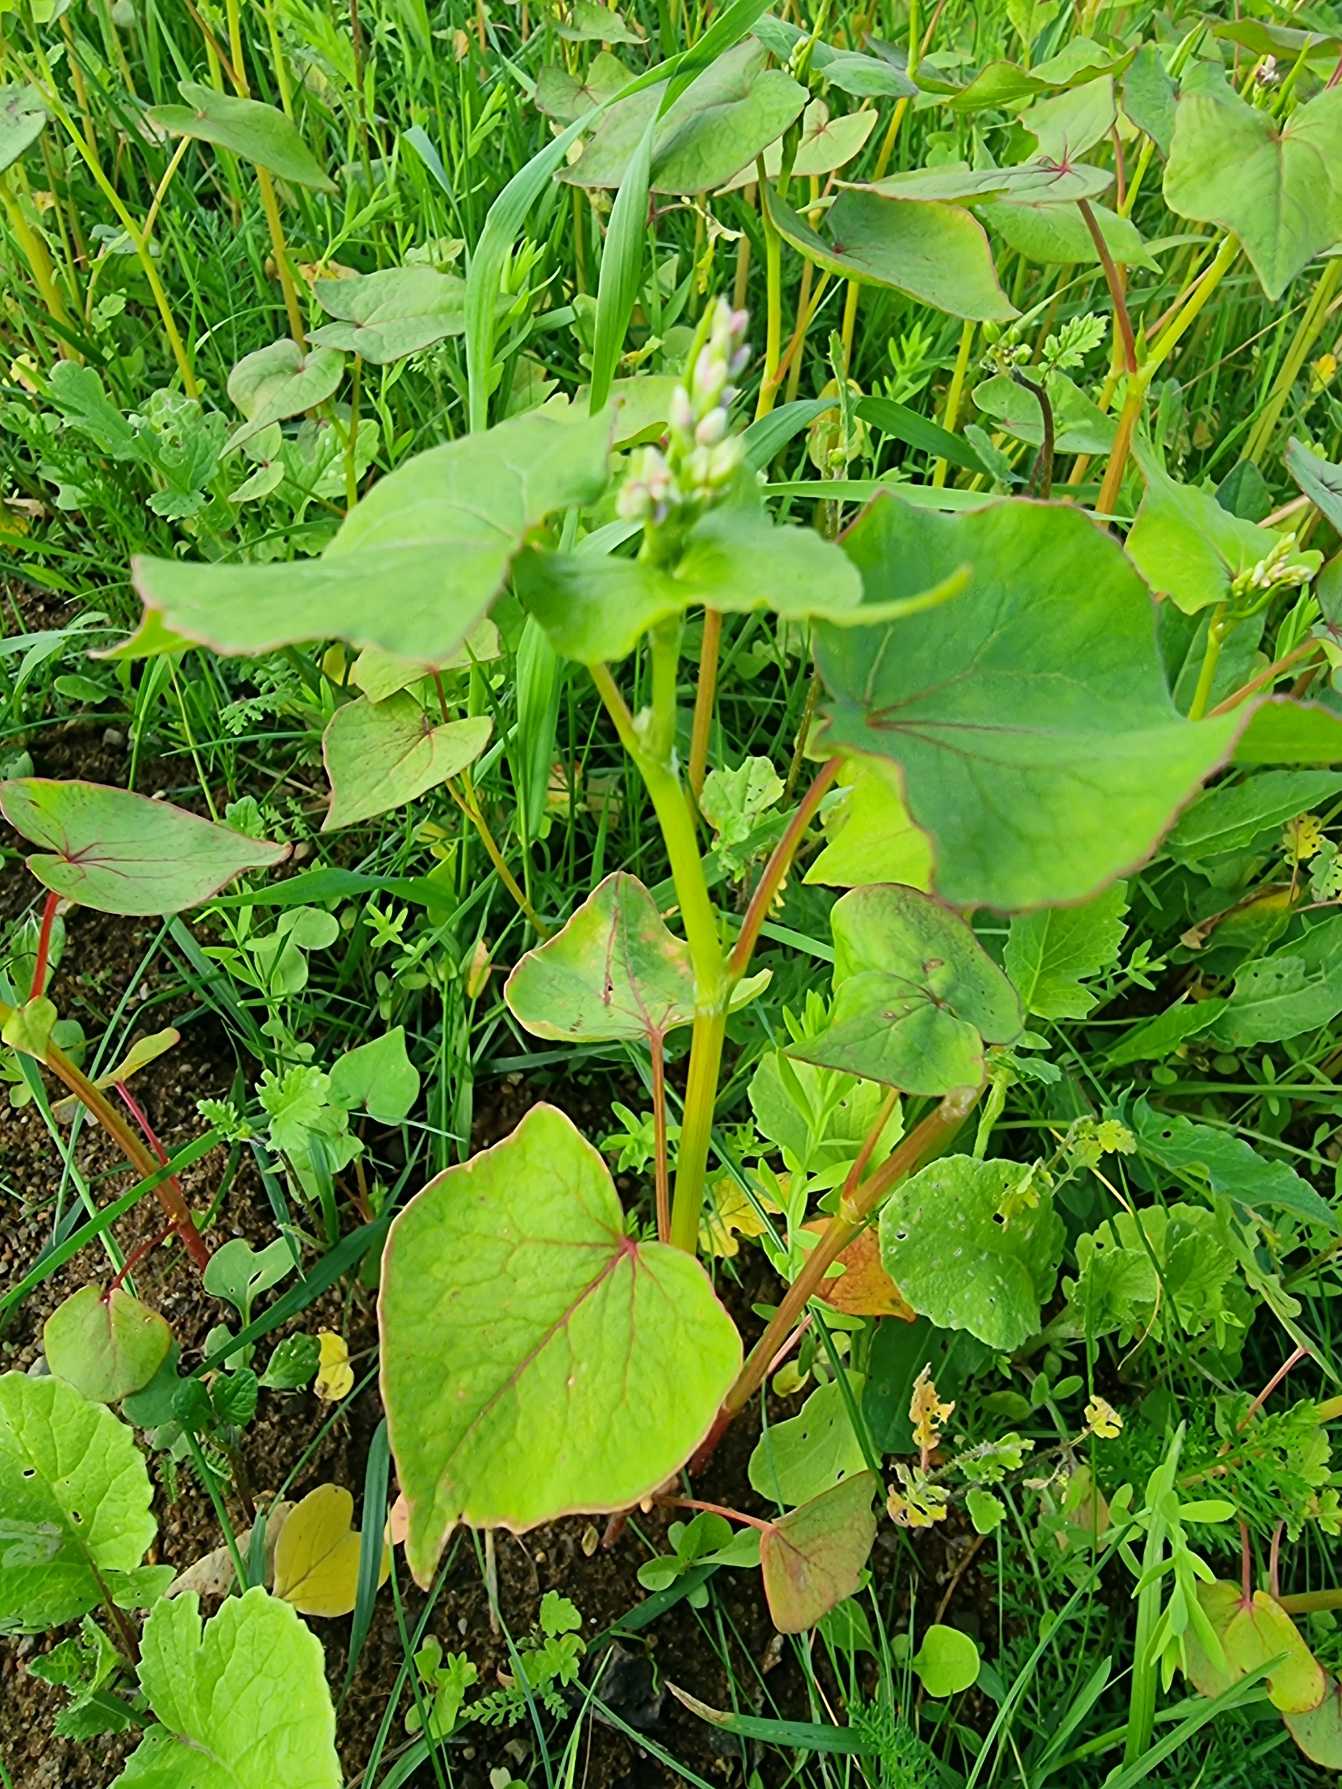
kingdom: Plantae
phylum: Tracheophyta
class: Magnoliopsida
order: Caryophyllales
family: Polygonaceae
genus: Fagopyrum
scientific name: Fagopyrum esculentum
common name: Almindelig boghvede
